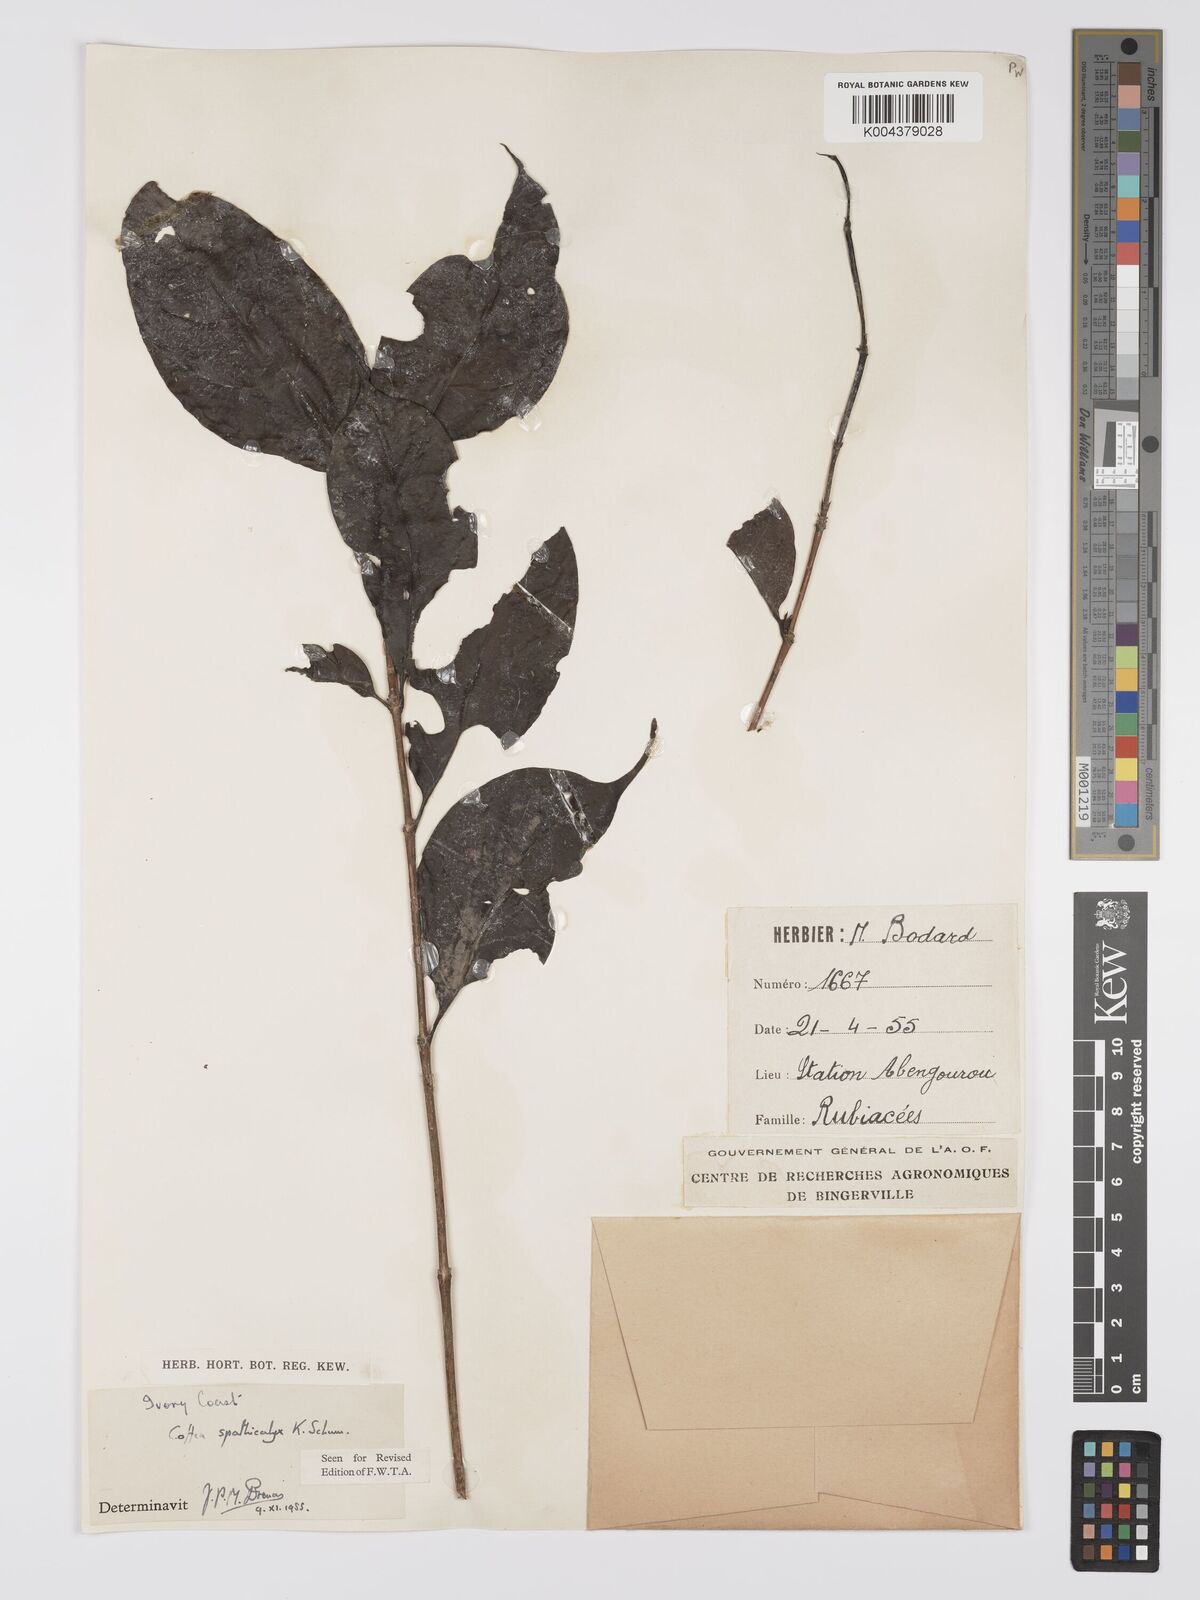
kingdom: Plantae
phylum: Tracheophyta
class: Magnoliopsida
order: Gentianales
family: Rubiaceae
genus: Calycosiphonia
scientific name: Calycosiphonia spathicalyx
